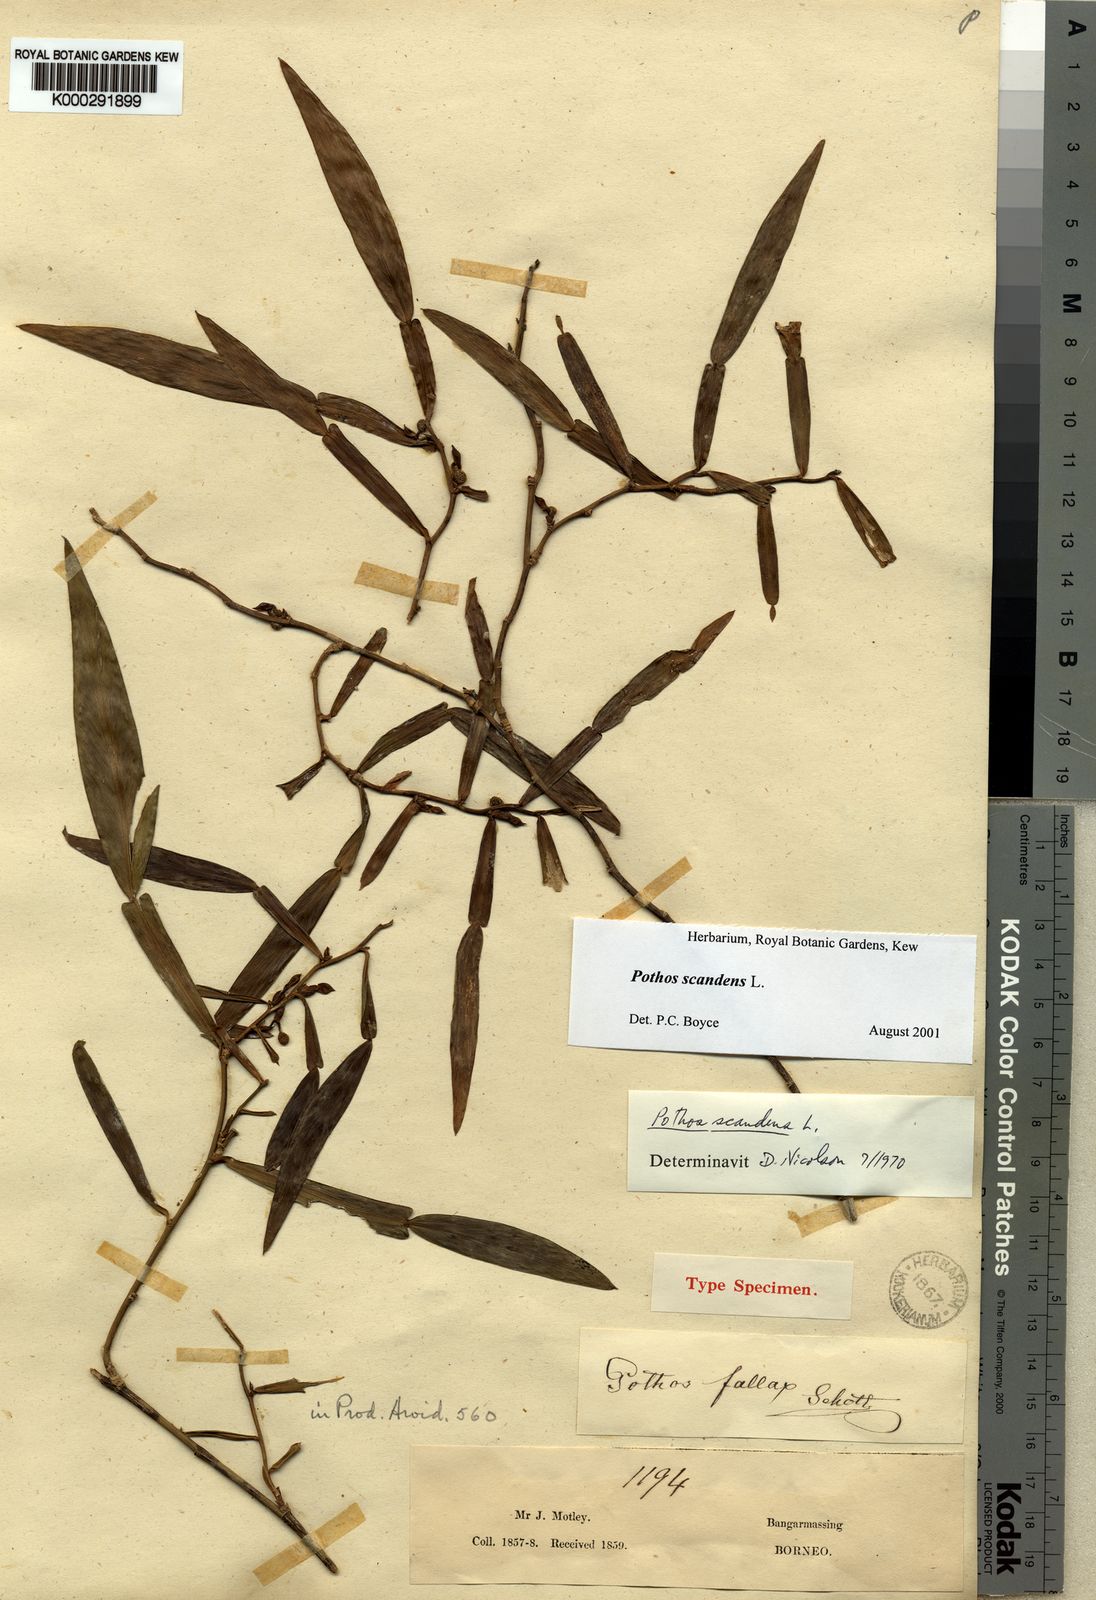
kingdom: Plantae
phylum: Tracheophyta
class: Liliopsida
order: Alismatales
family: Araceae
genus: Pothos
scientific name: Pothos scandens
